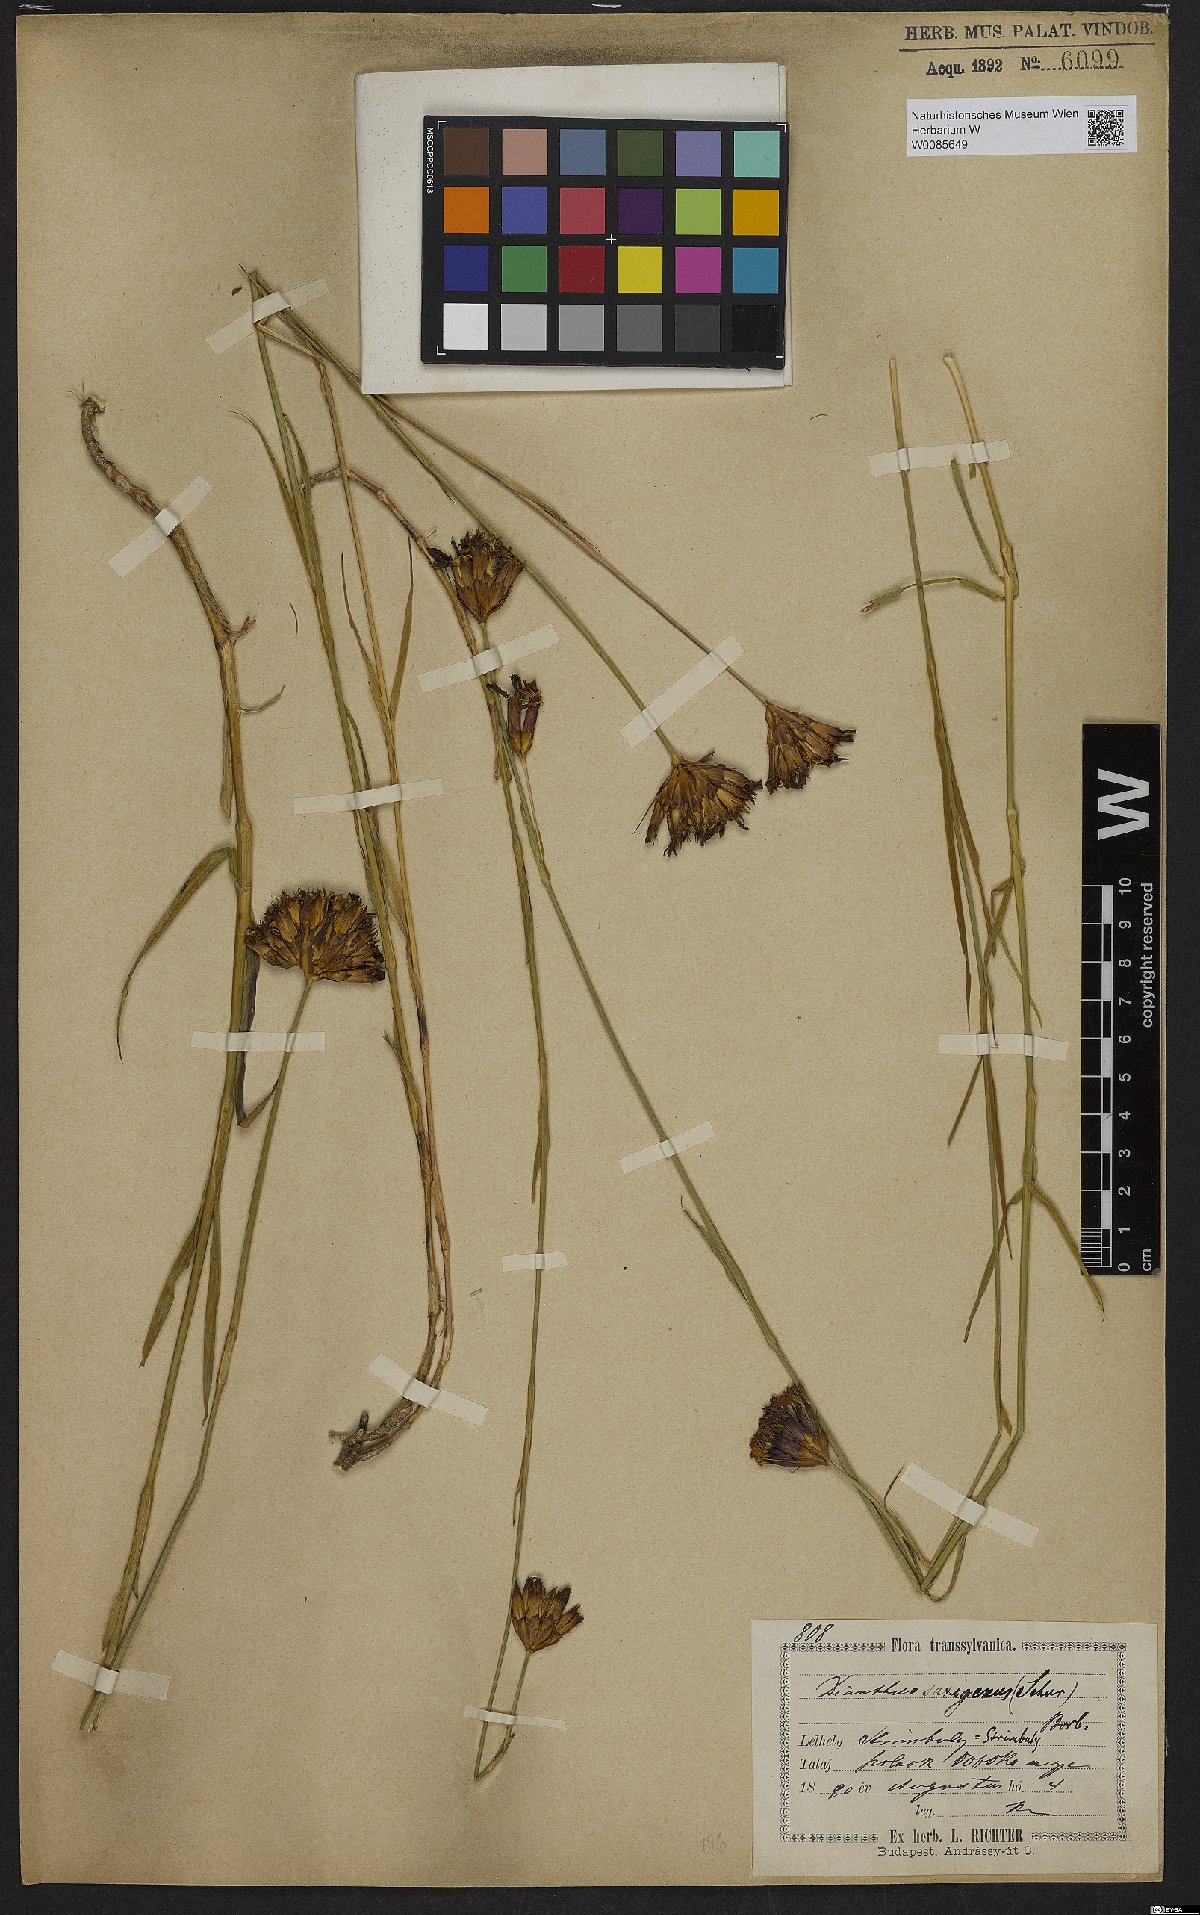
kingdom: Plantae
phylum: Tracheophyta
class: Magnoliopsida
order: Caryophyllales
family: Caryophyllaceae
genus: Dianthus
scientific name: Dianthus
